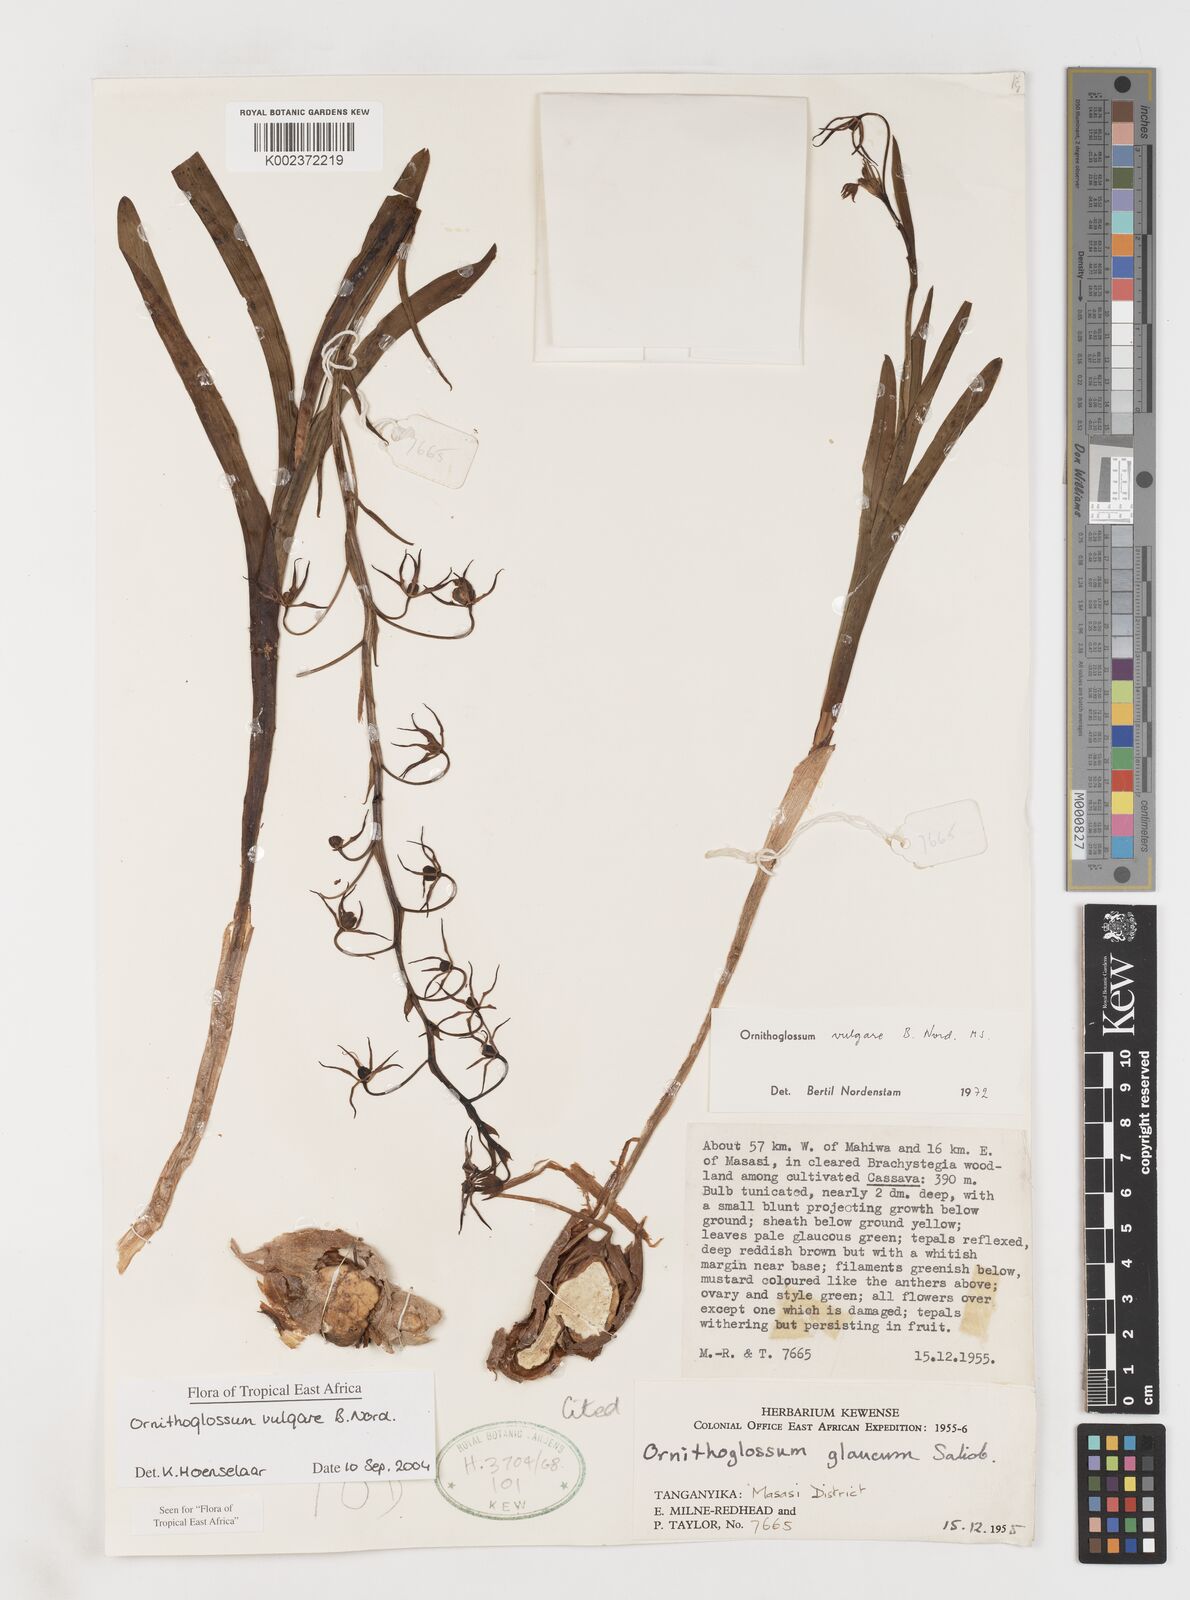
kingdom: Plantae
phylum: Tracheophyta
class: Liliopsida
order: Liliales
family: Colchicaceae
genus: Ornithoglossum
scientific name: Ornithoglossum vulgare
